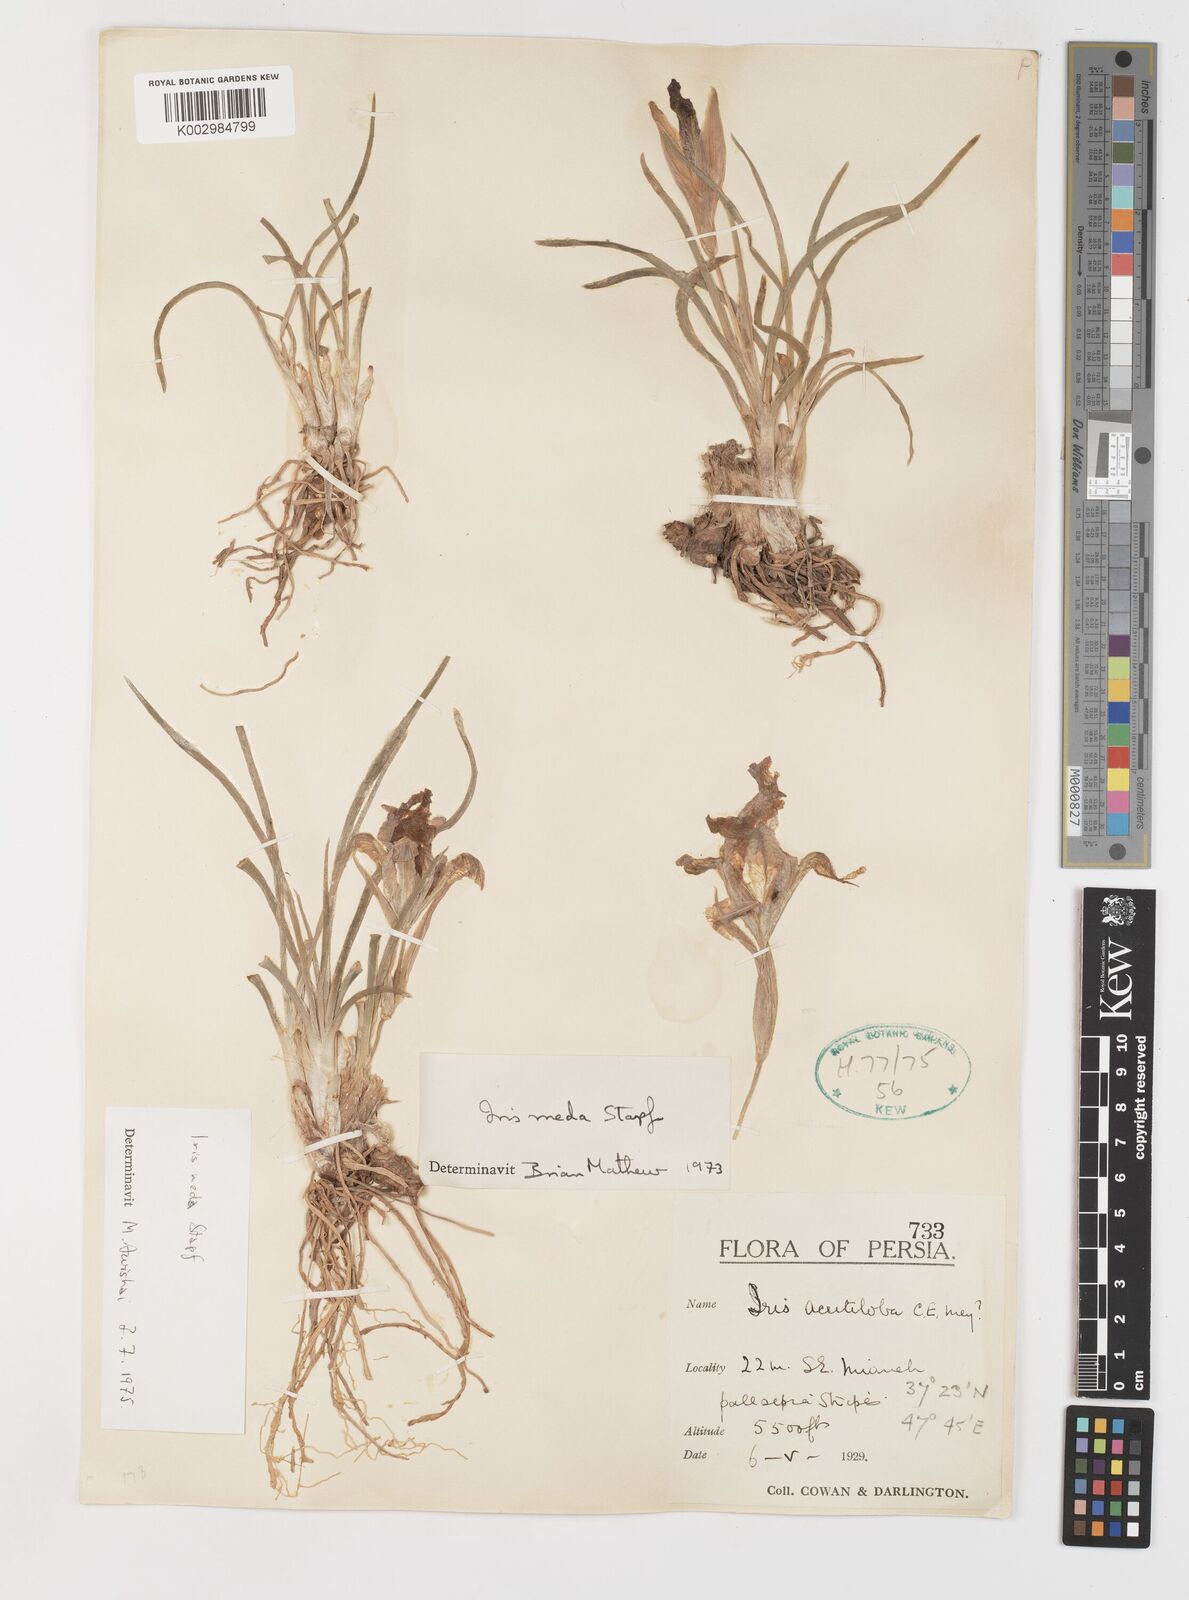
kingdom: Plantae
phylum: Tracheophyta
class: Liliopsida
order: Asparagales
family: Iridaceae
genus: Iris
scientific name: Iris meda
